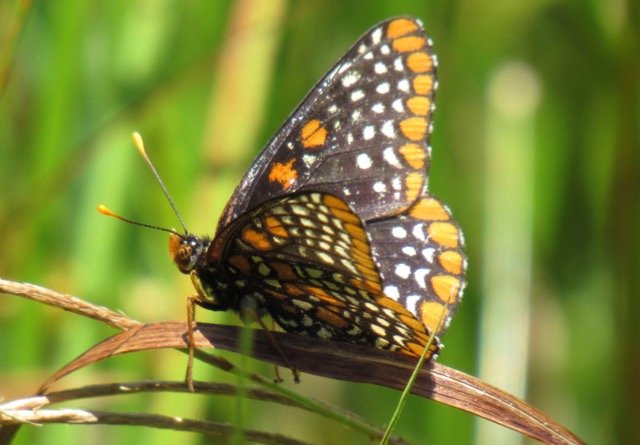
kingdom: Animalia
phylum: Arthropoda
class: Insecta
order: Lepidoptera
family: Nymphalidae
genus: Euphydryas
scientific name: Euphydryas phaeton
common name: Baltimore Checkerspot
